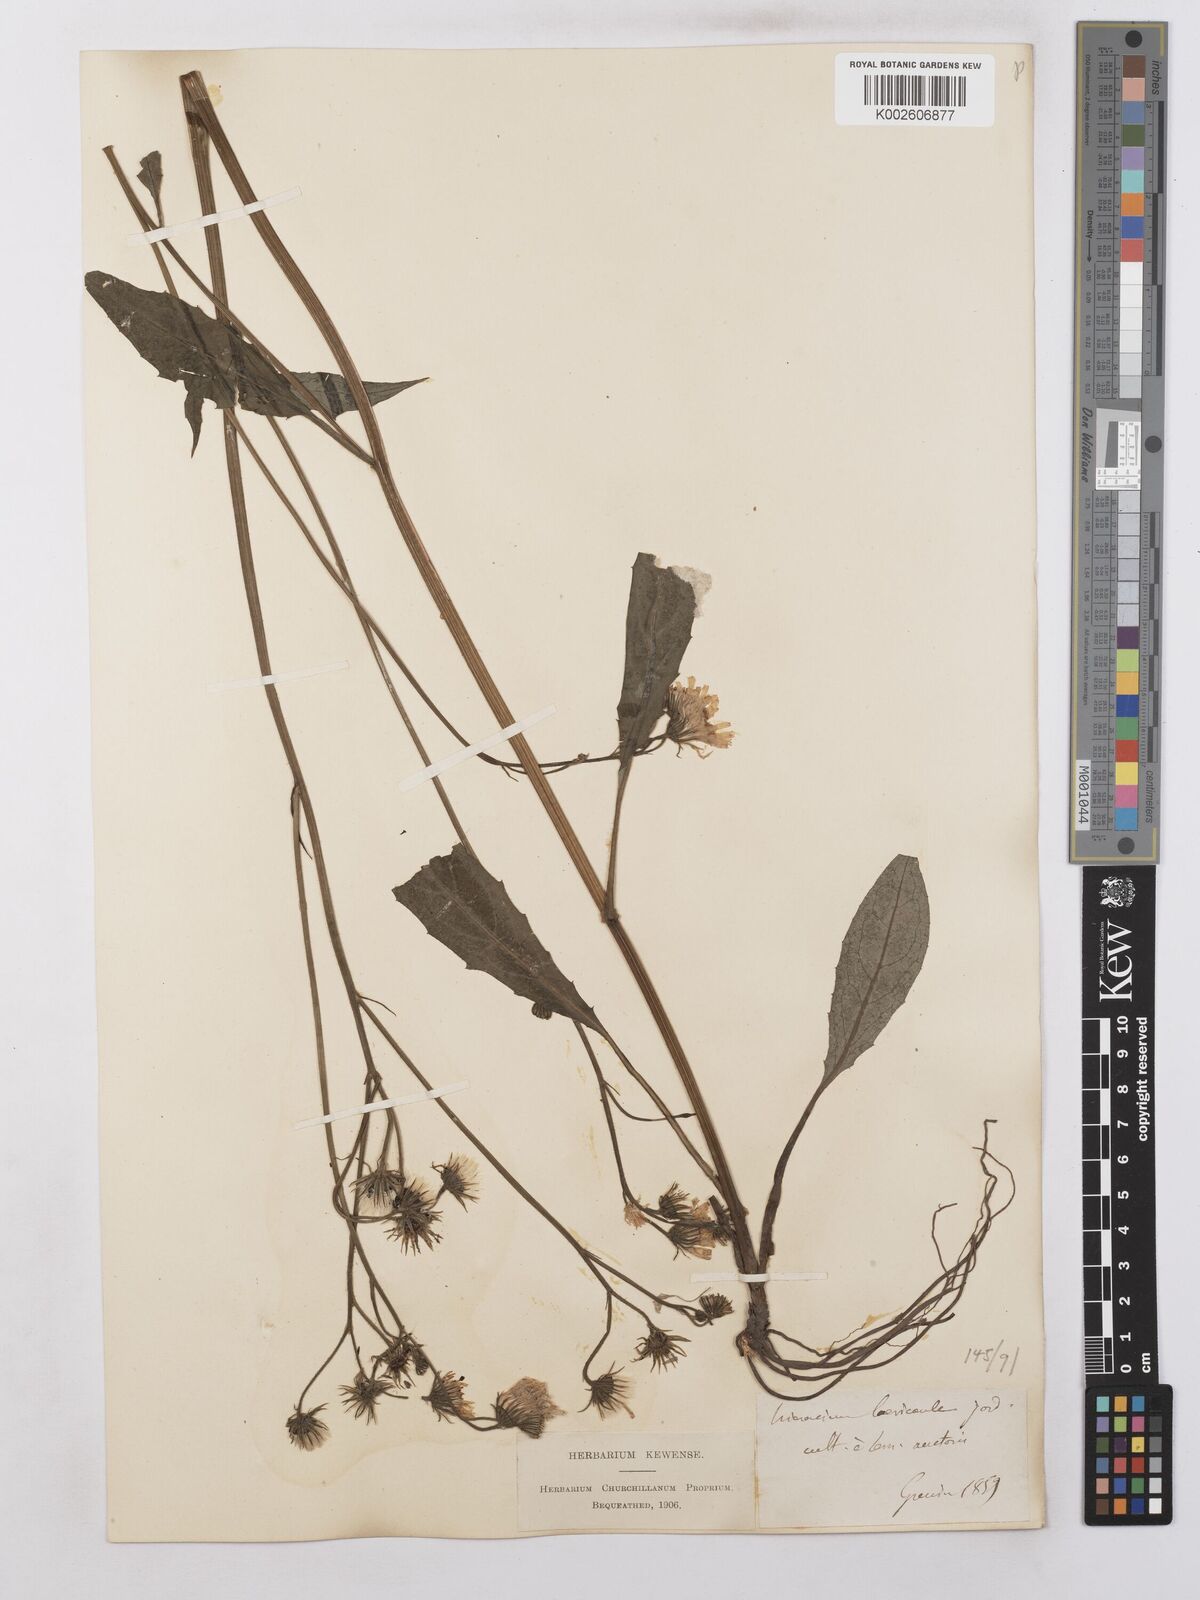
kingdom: Plantae
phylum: Tracheophyta
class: Magnoliopsida
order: Asterales
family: Asteraceae
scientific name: Asteraceae
